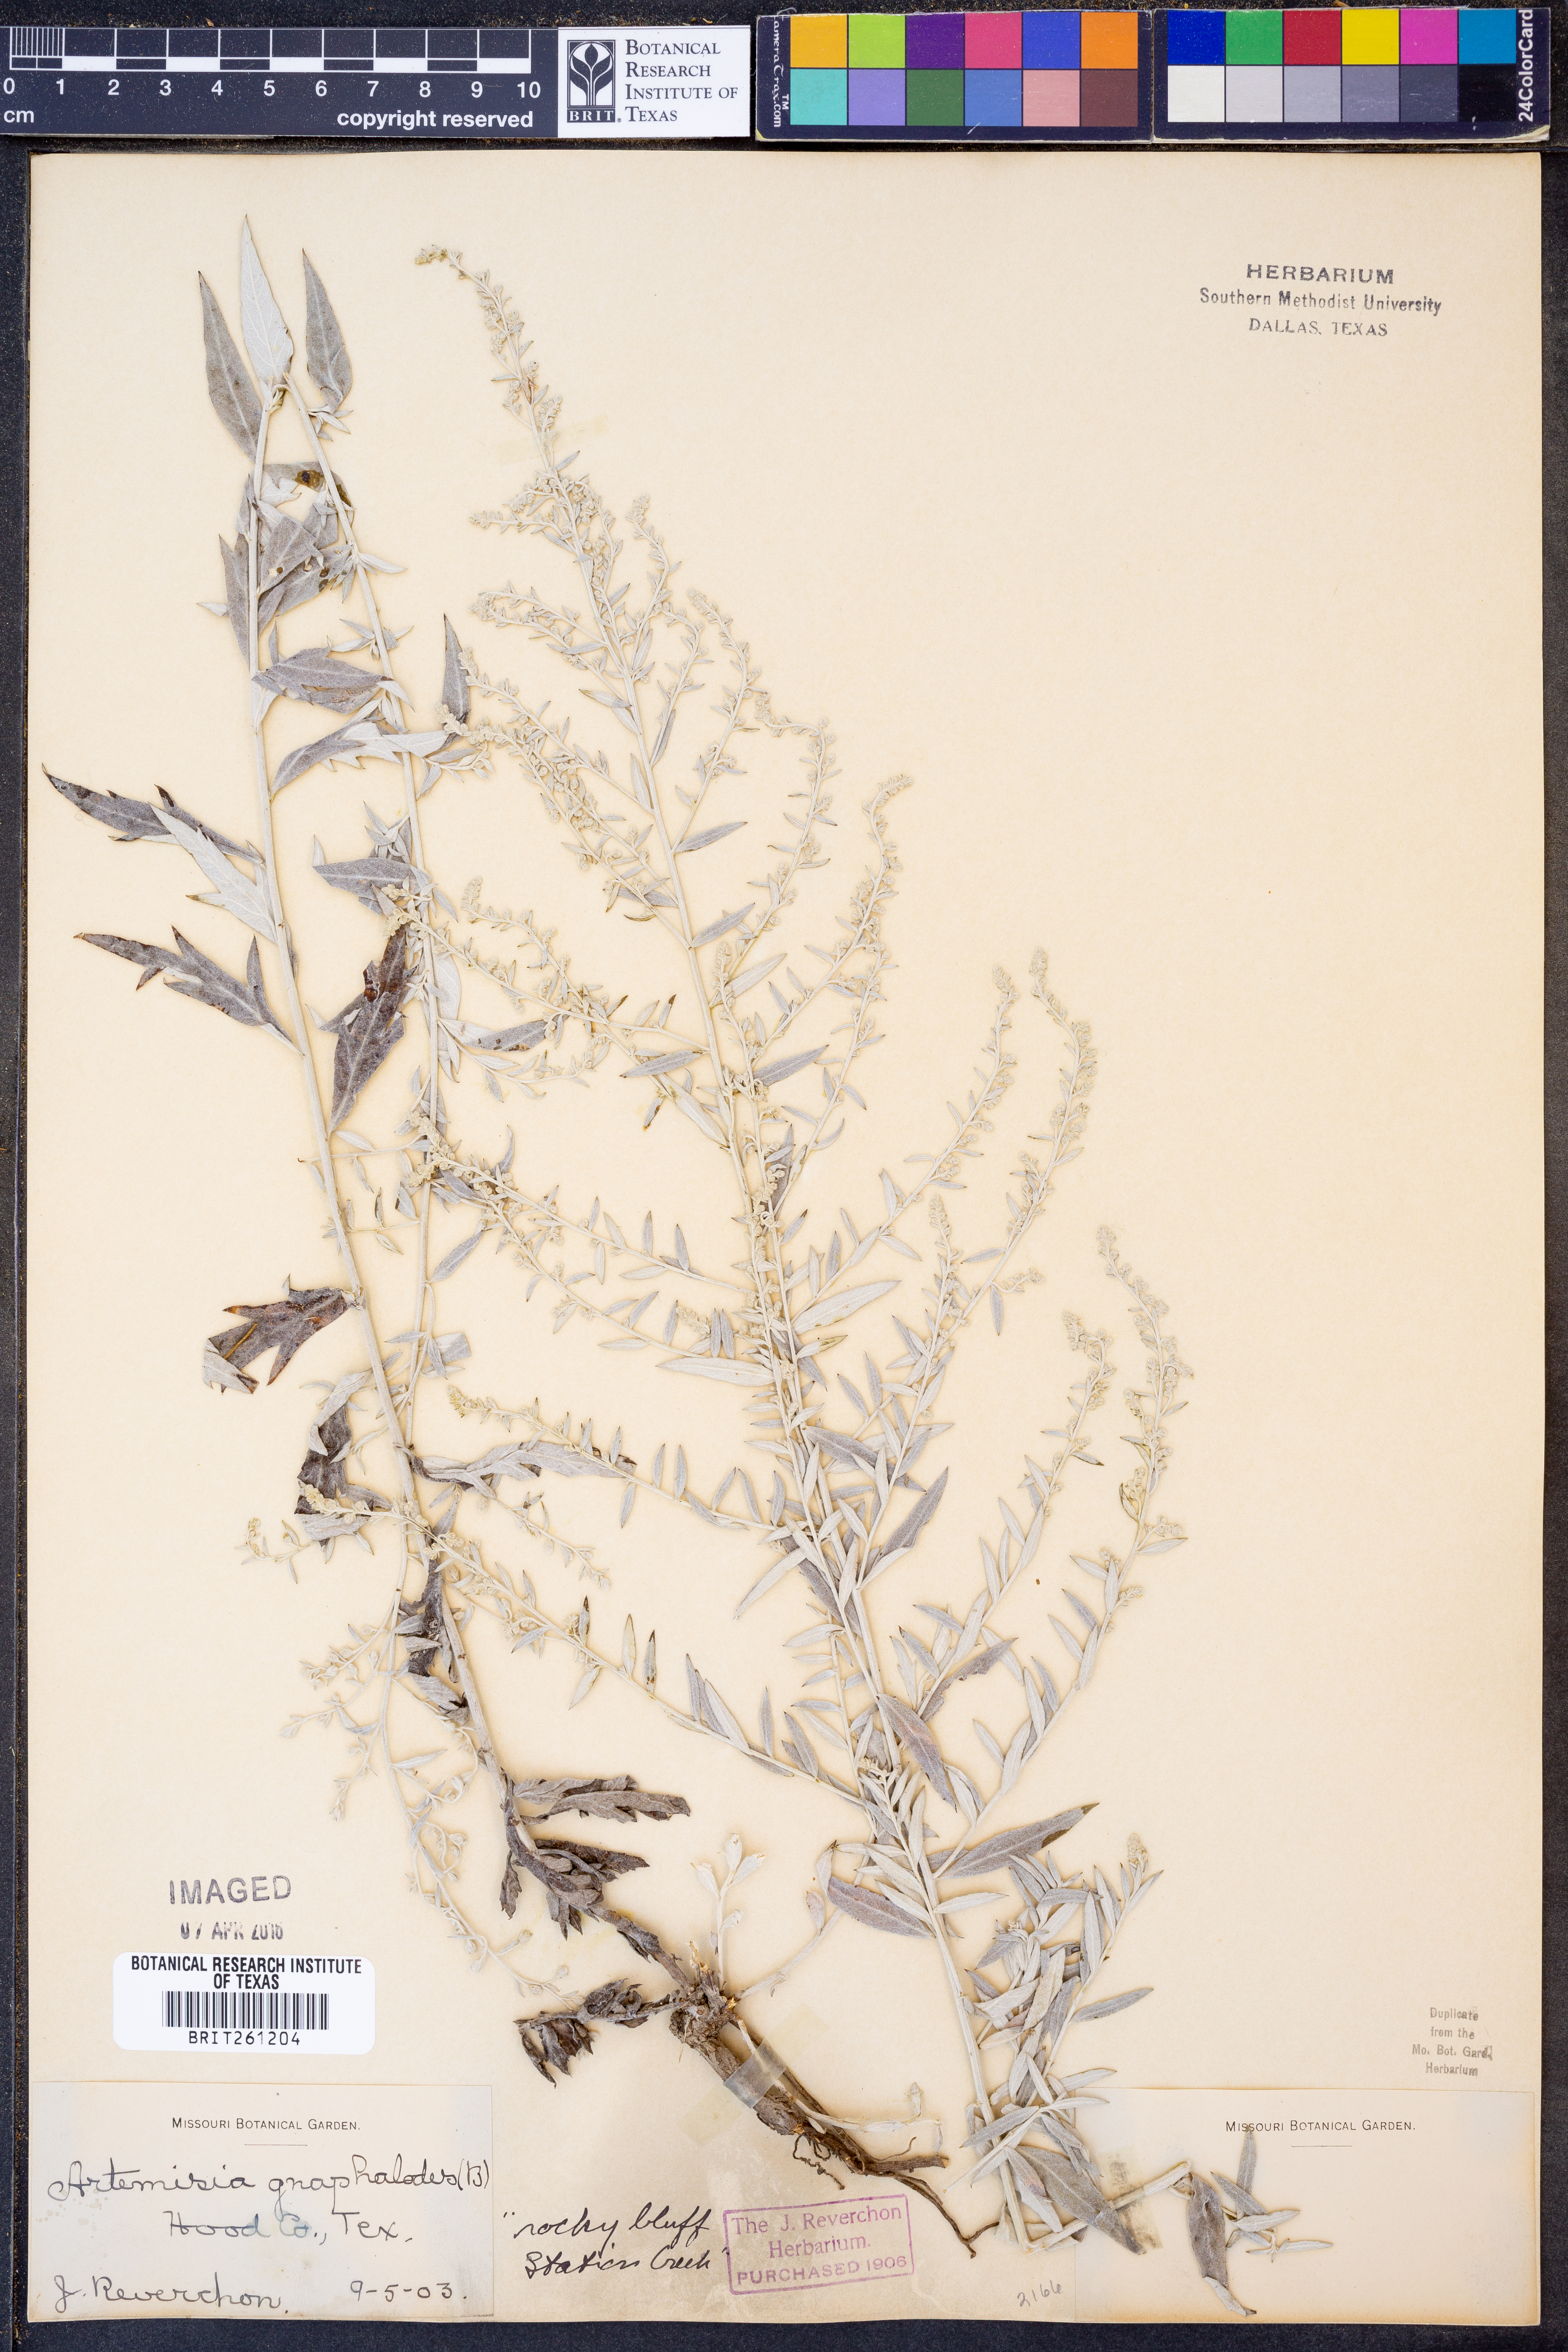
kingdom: Plantae
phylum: Tracheophyta
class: Magnoliopsida
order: Asterales
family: Asteraceae
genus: Artemisia
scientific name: Artemisia ludoviciana
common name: Western mugwort
